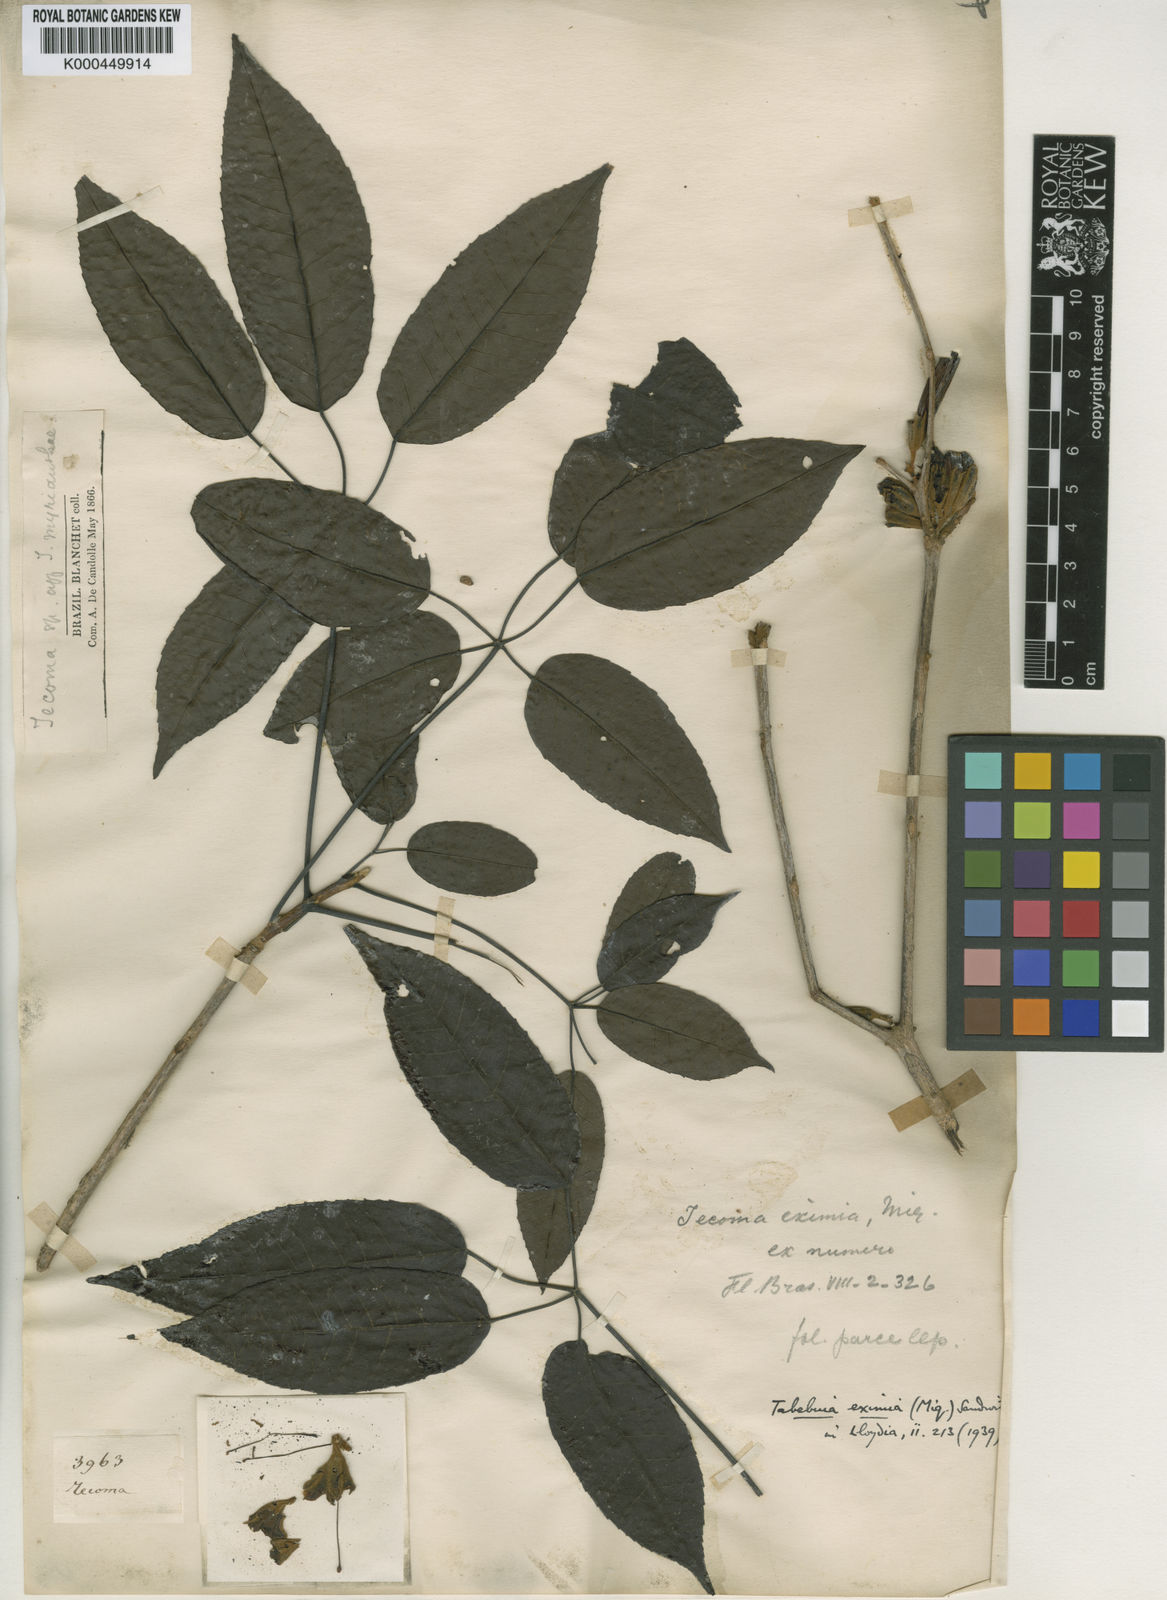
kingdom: Plantae
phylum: Tracheophyta
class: Magnoliopsida
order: Lamiales
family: Bignoniaceae
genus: Handroanthus
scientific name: Handroanthus heptaphyllus
